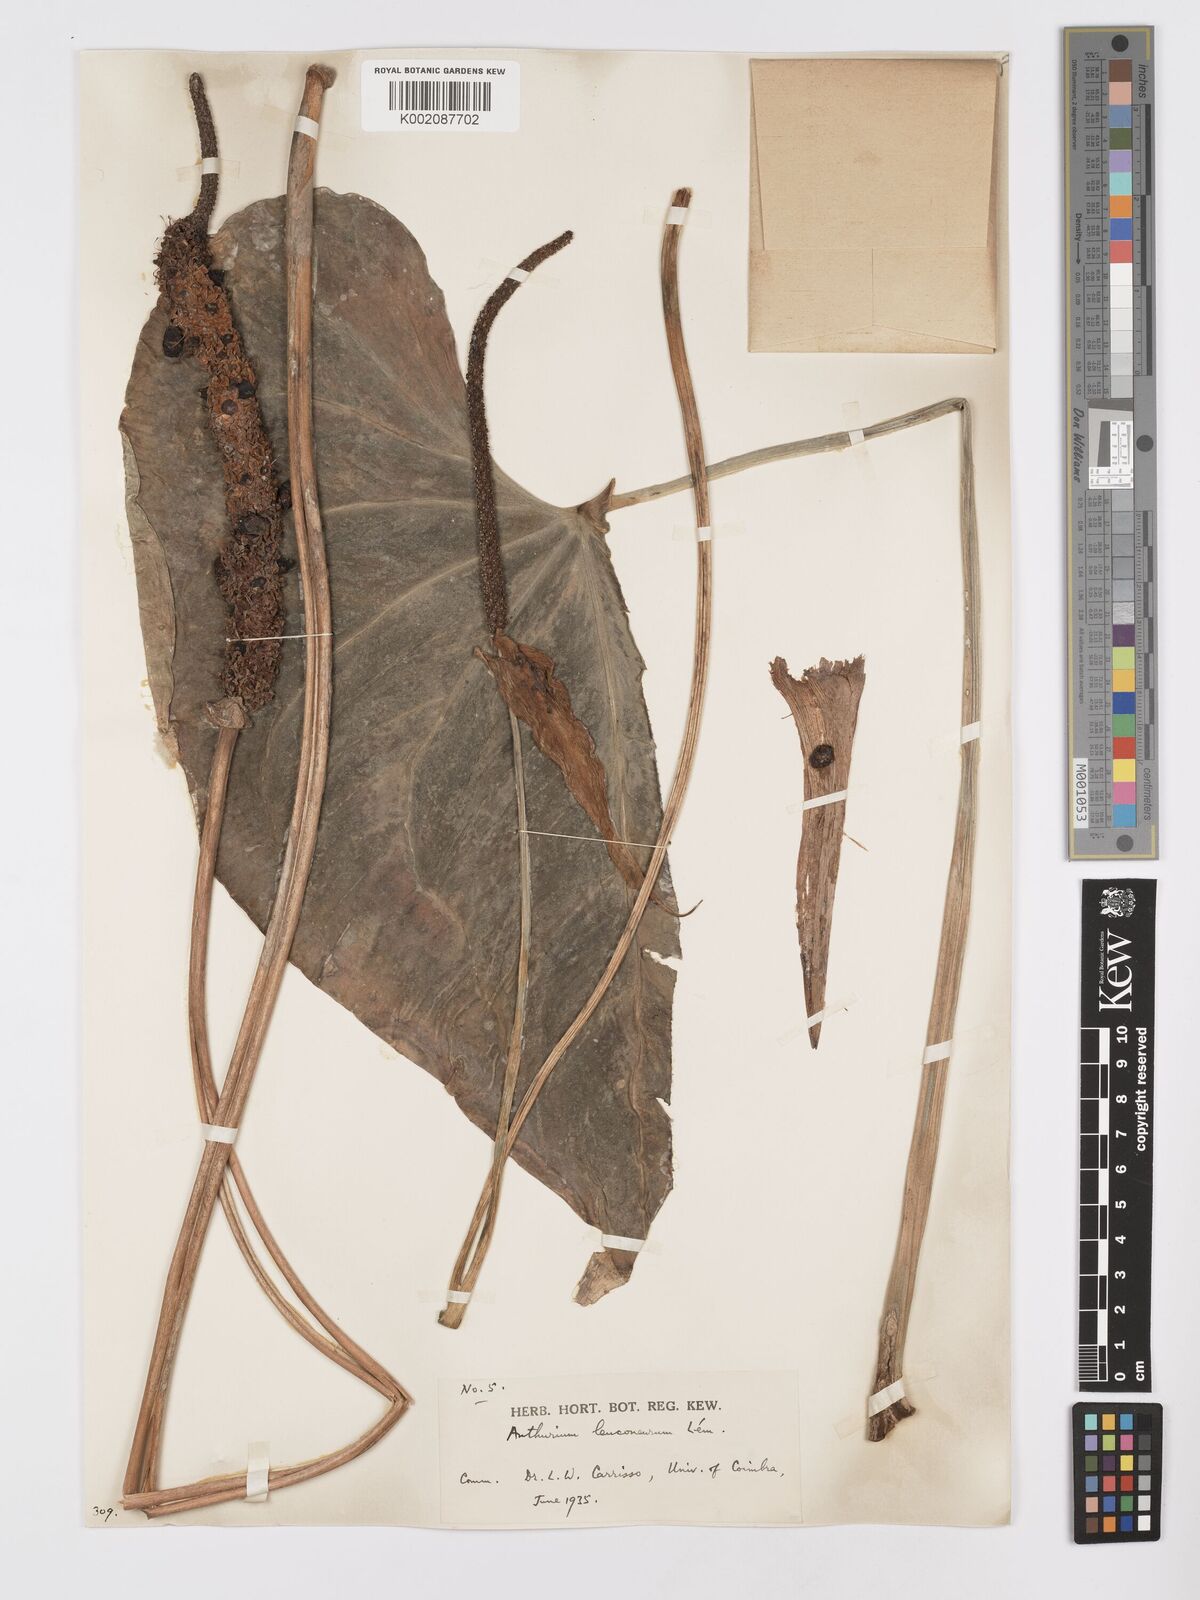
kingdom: Plantae
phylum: Tracheophyta
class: Liliopsida
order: Alismatales
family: Araceae
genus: Anthurium
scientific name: Anthurium leuconeurum
